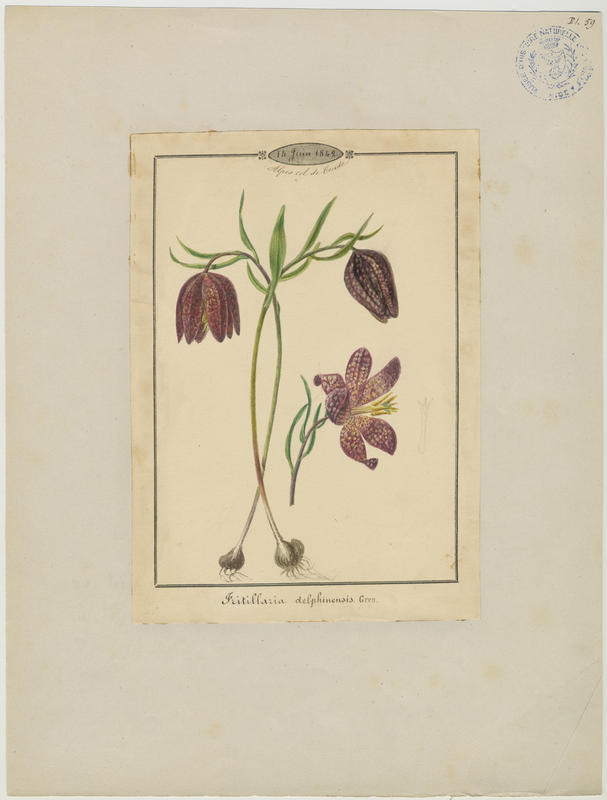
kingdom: Plantae
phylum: Tracheophyta
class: Liliopsida
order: Liliales
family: Liliaceae
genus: Fritillaria
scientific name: Fritillaria tubiformis
